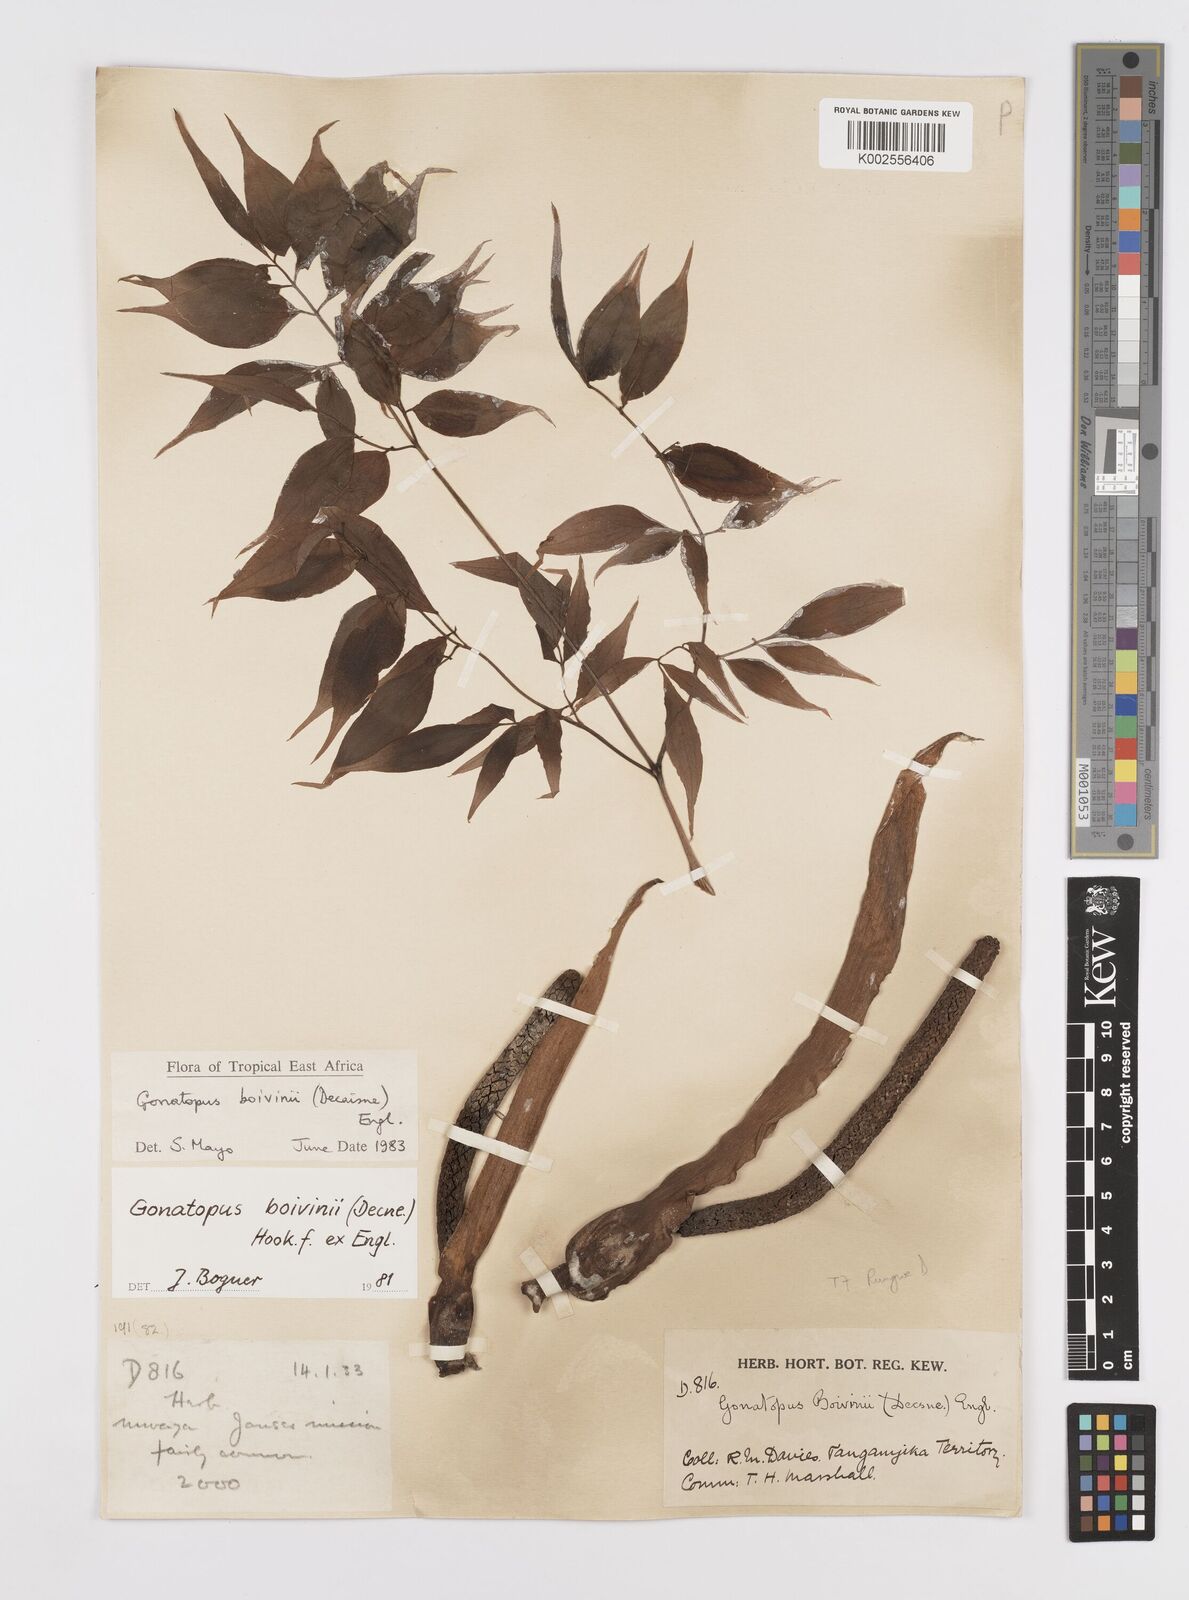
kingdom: Plantae
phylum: Tracheophyta
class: Liliopsida
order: Alismatales
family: Araceae
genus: Gonatopus
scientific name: Gonatopus boivinii
